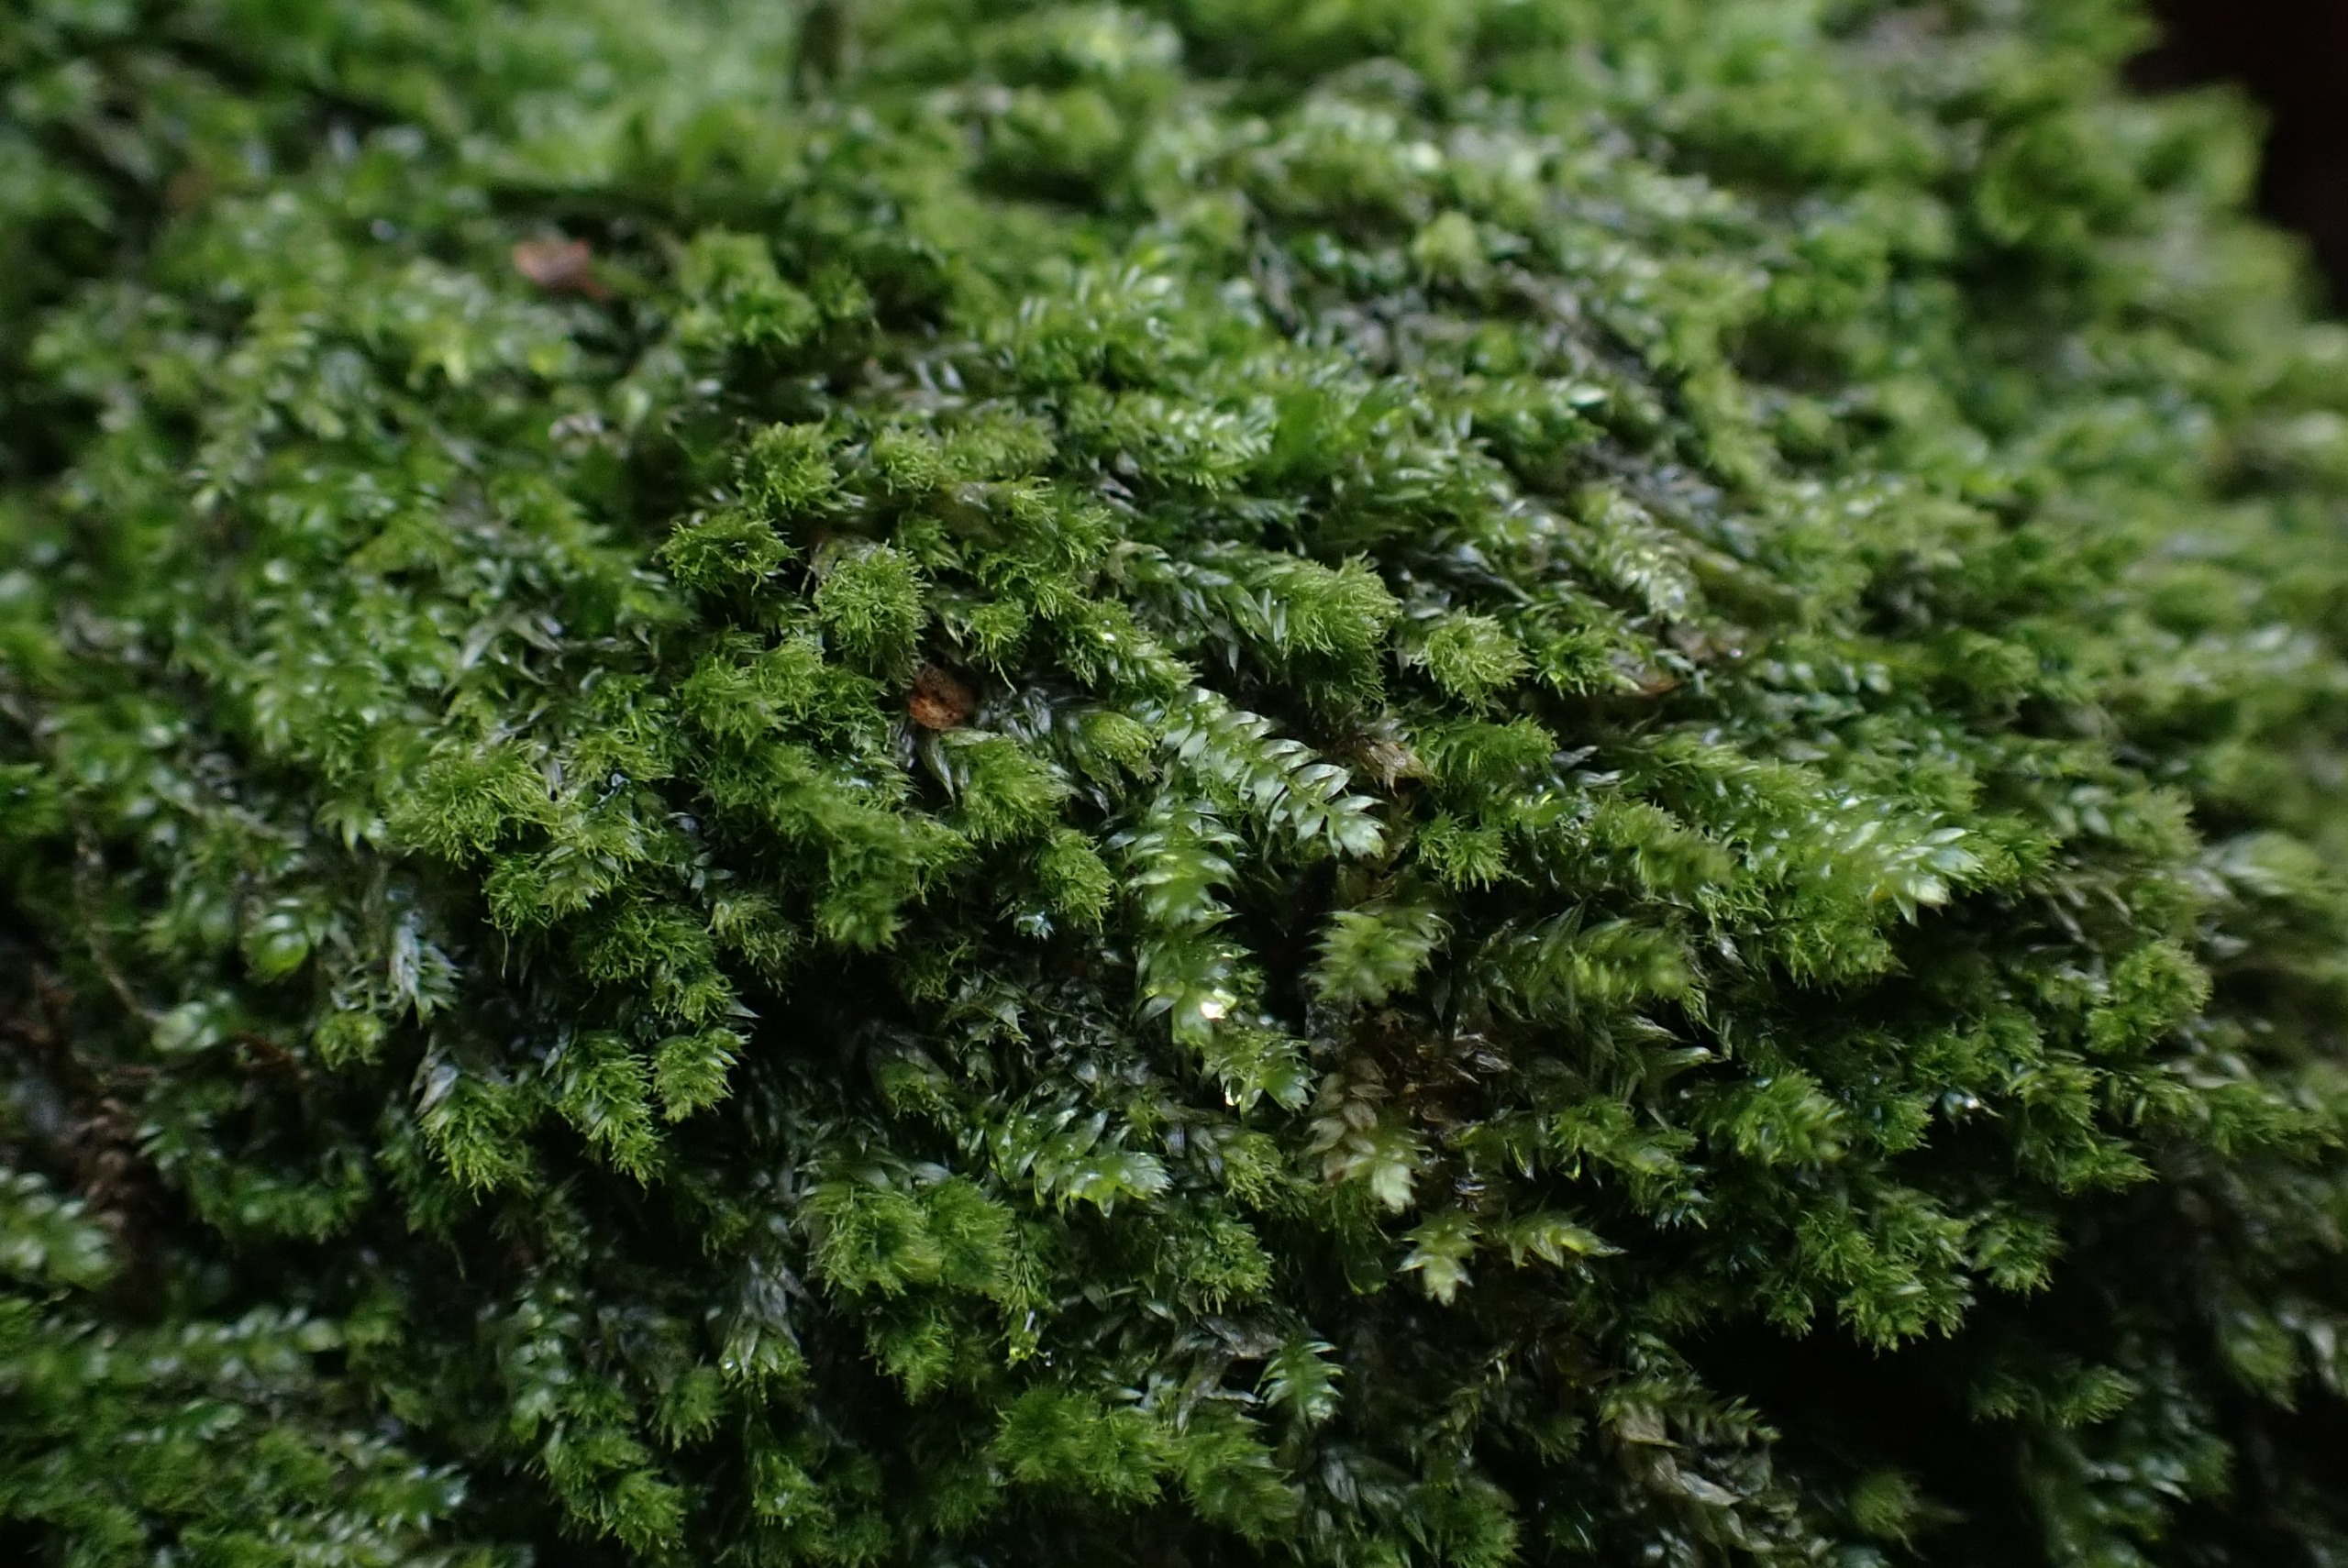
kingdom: Plantae
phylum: Bryophyta
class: Bryopsida
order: Hypnales
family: Plagiotheciaceae
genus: Pseudotaxiphyllum
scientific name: Pseudotaxiphyllum elegans
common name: Skinnende ynglegren
